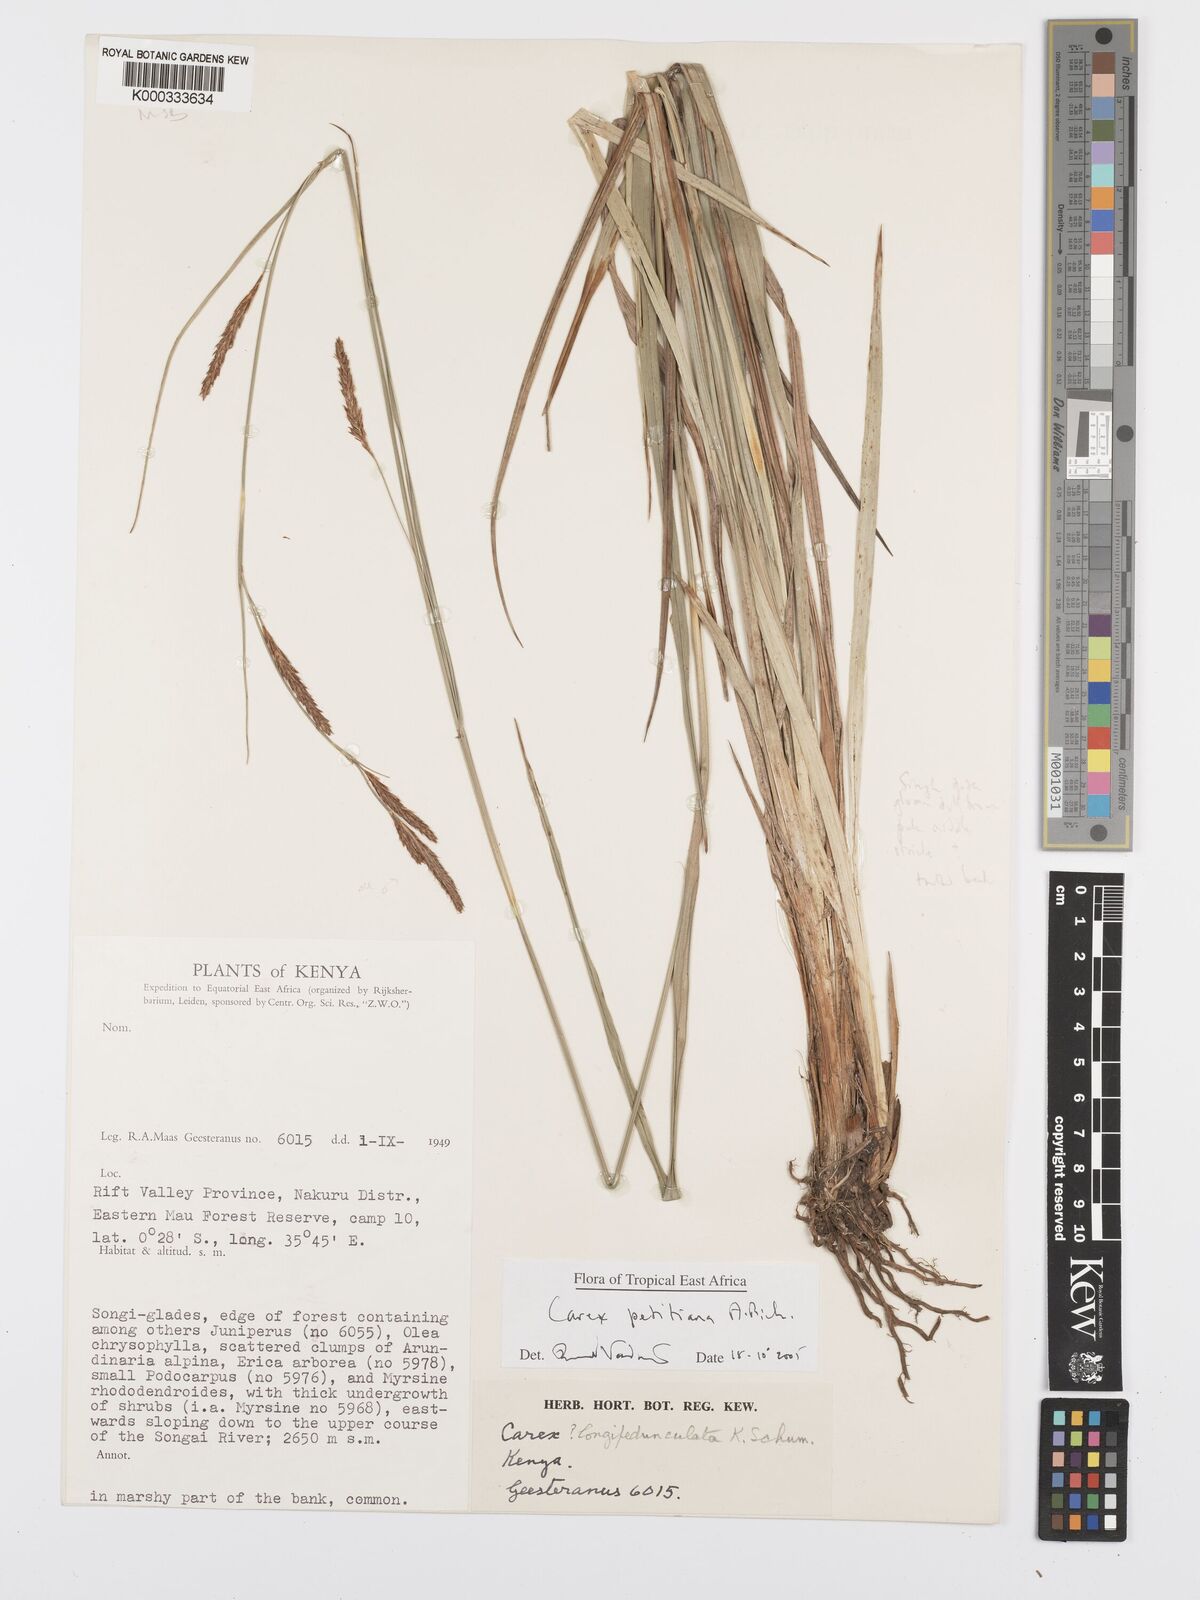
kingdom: Plantae
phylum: Tracheophyta
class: Liliopsida
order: Poales
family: Cyperaceae
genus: Carex
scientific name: Carex petitiana
